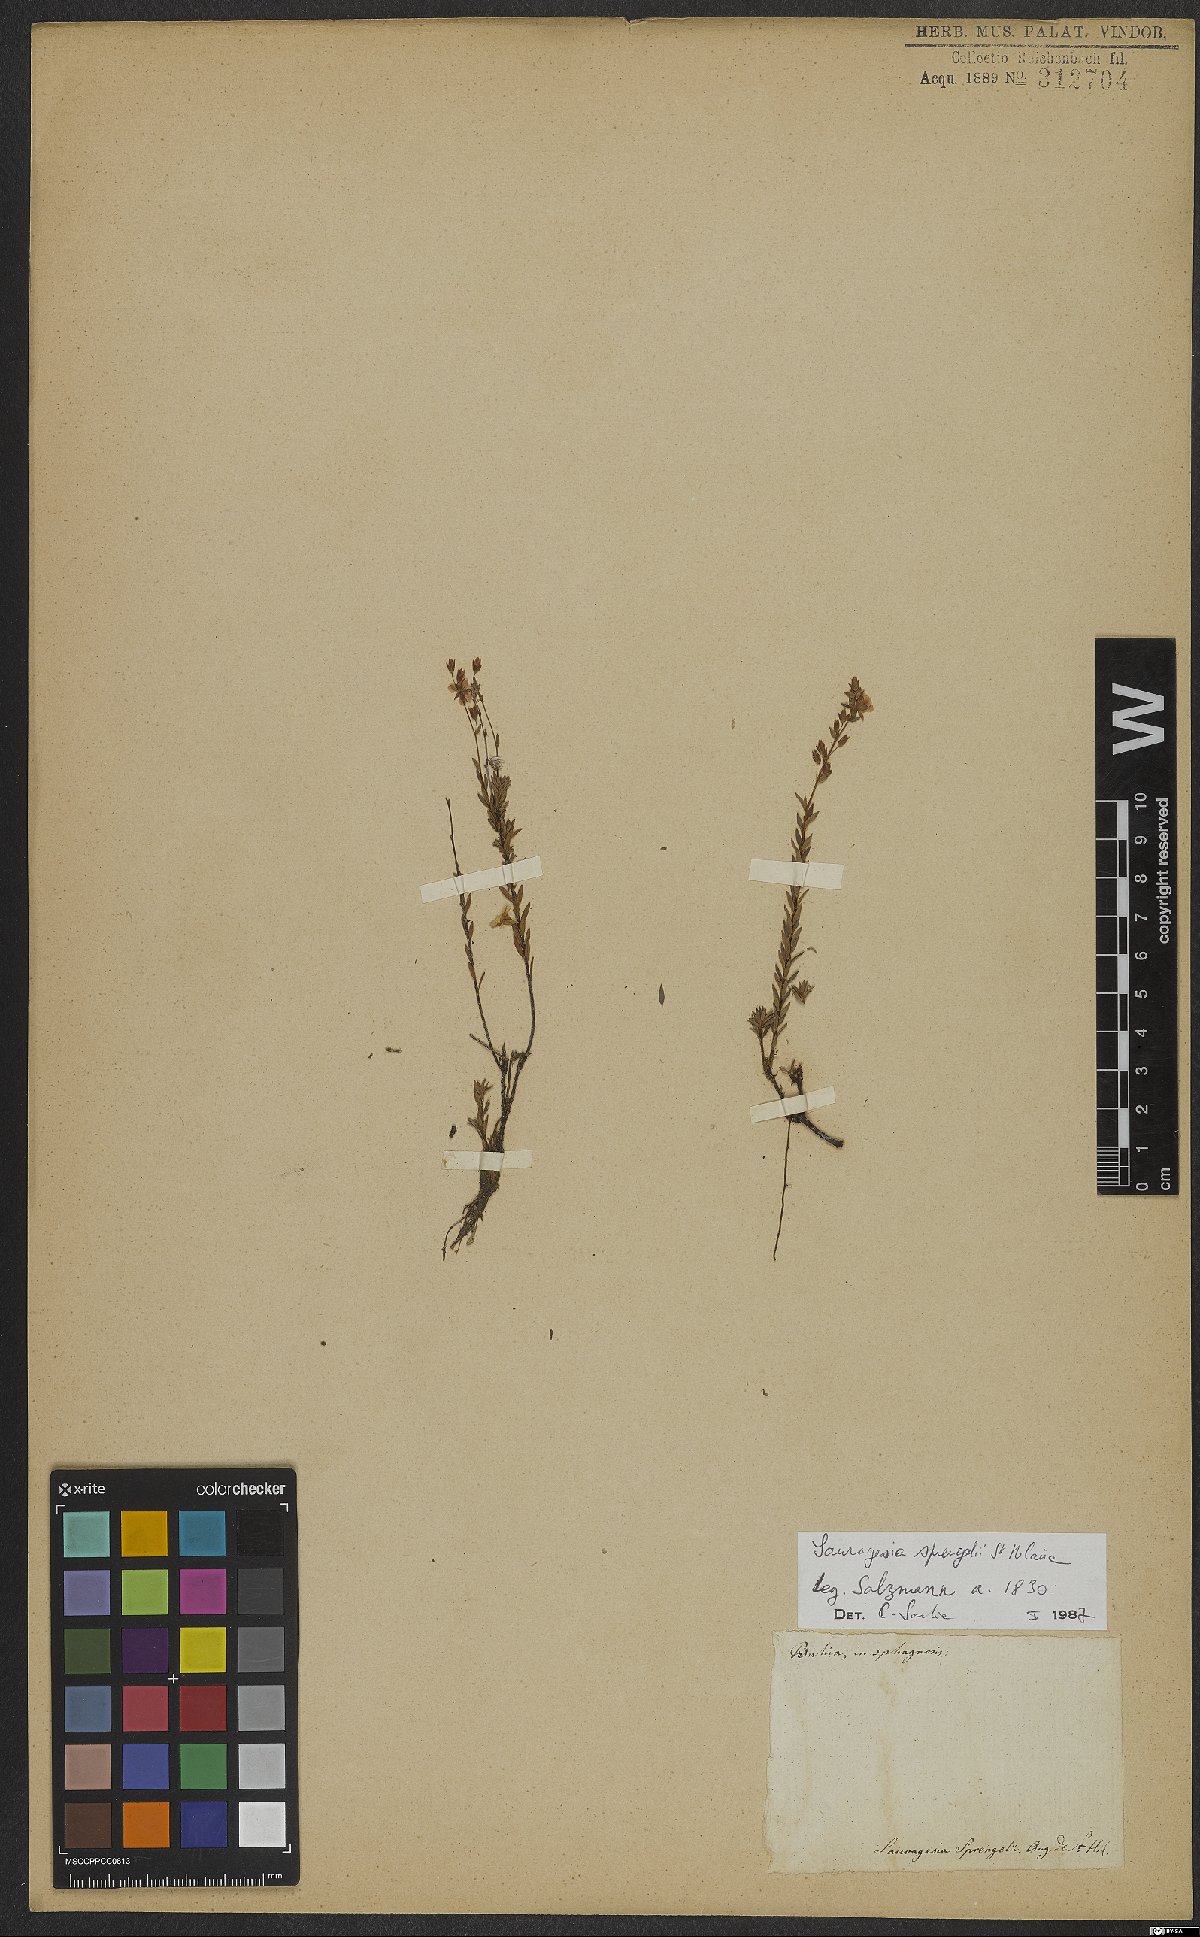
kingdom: Plantae
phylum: Tracheophyta
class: Magnoliopsida
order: Malpighiales
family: Ochnaceae
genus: Sauvagesia
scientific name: Sauvagesia tenella
